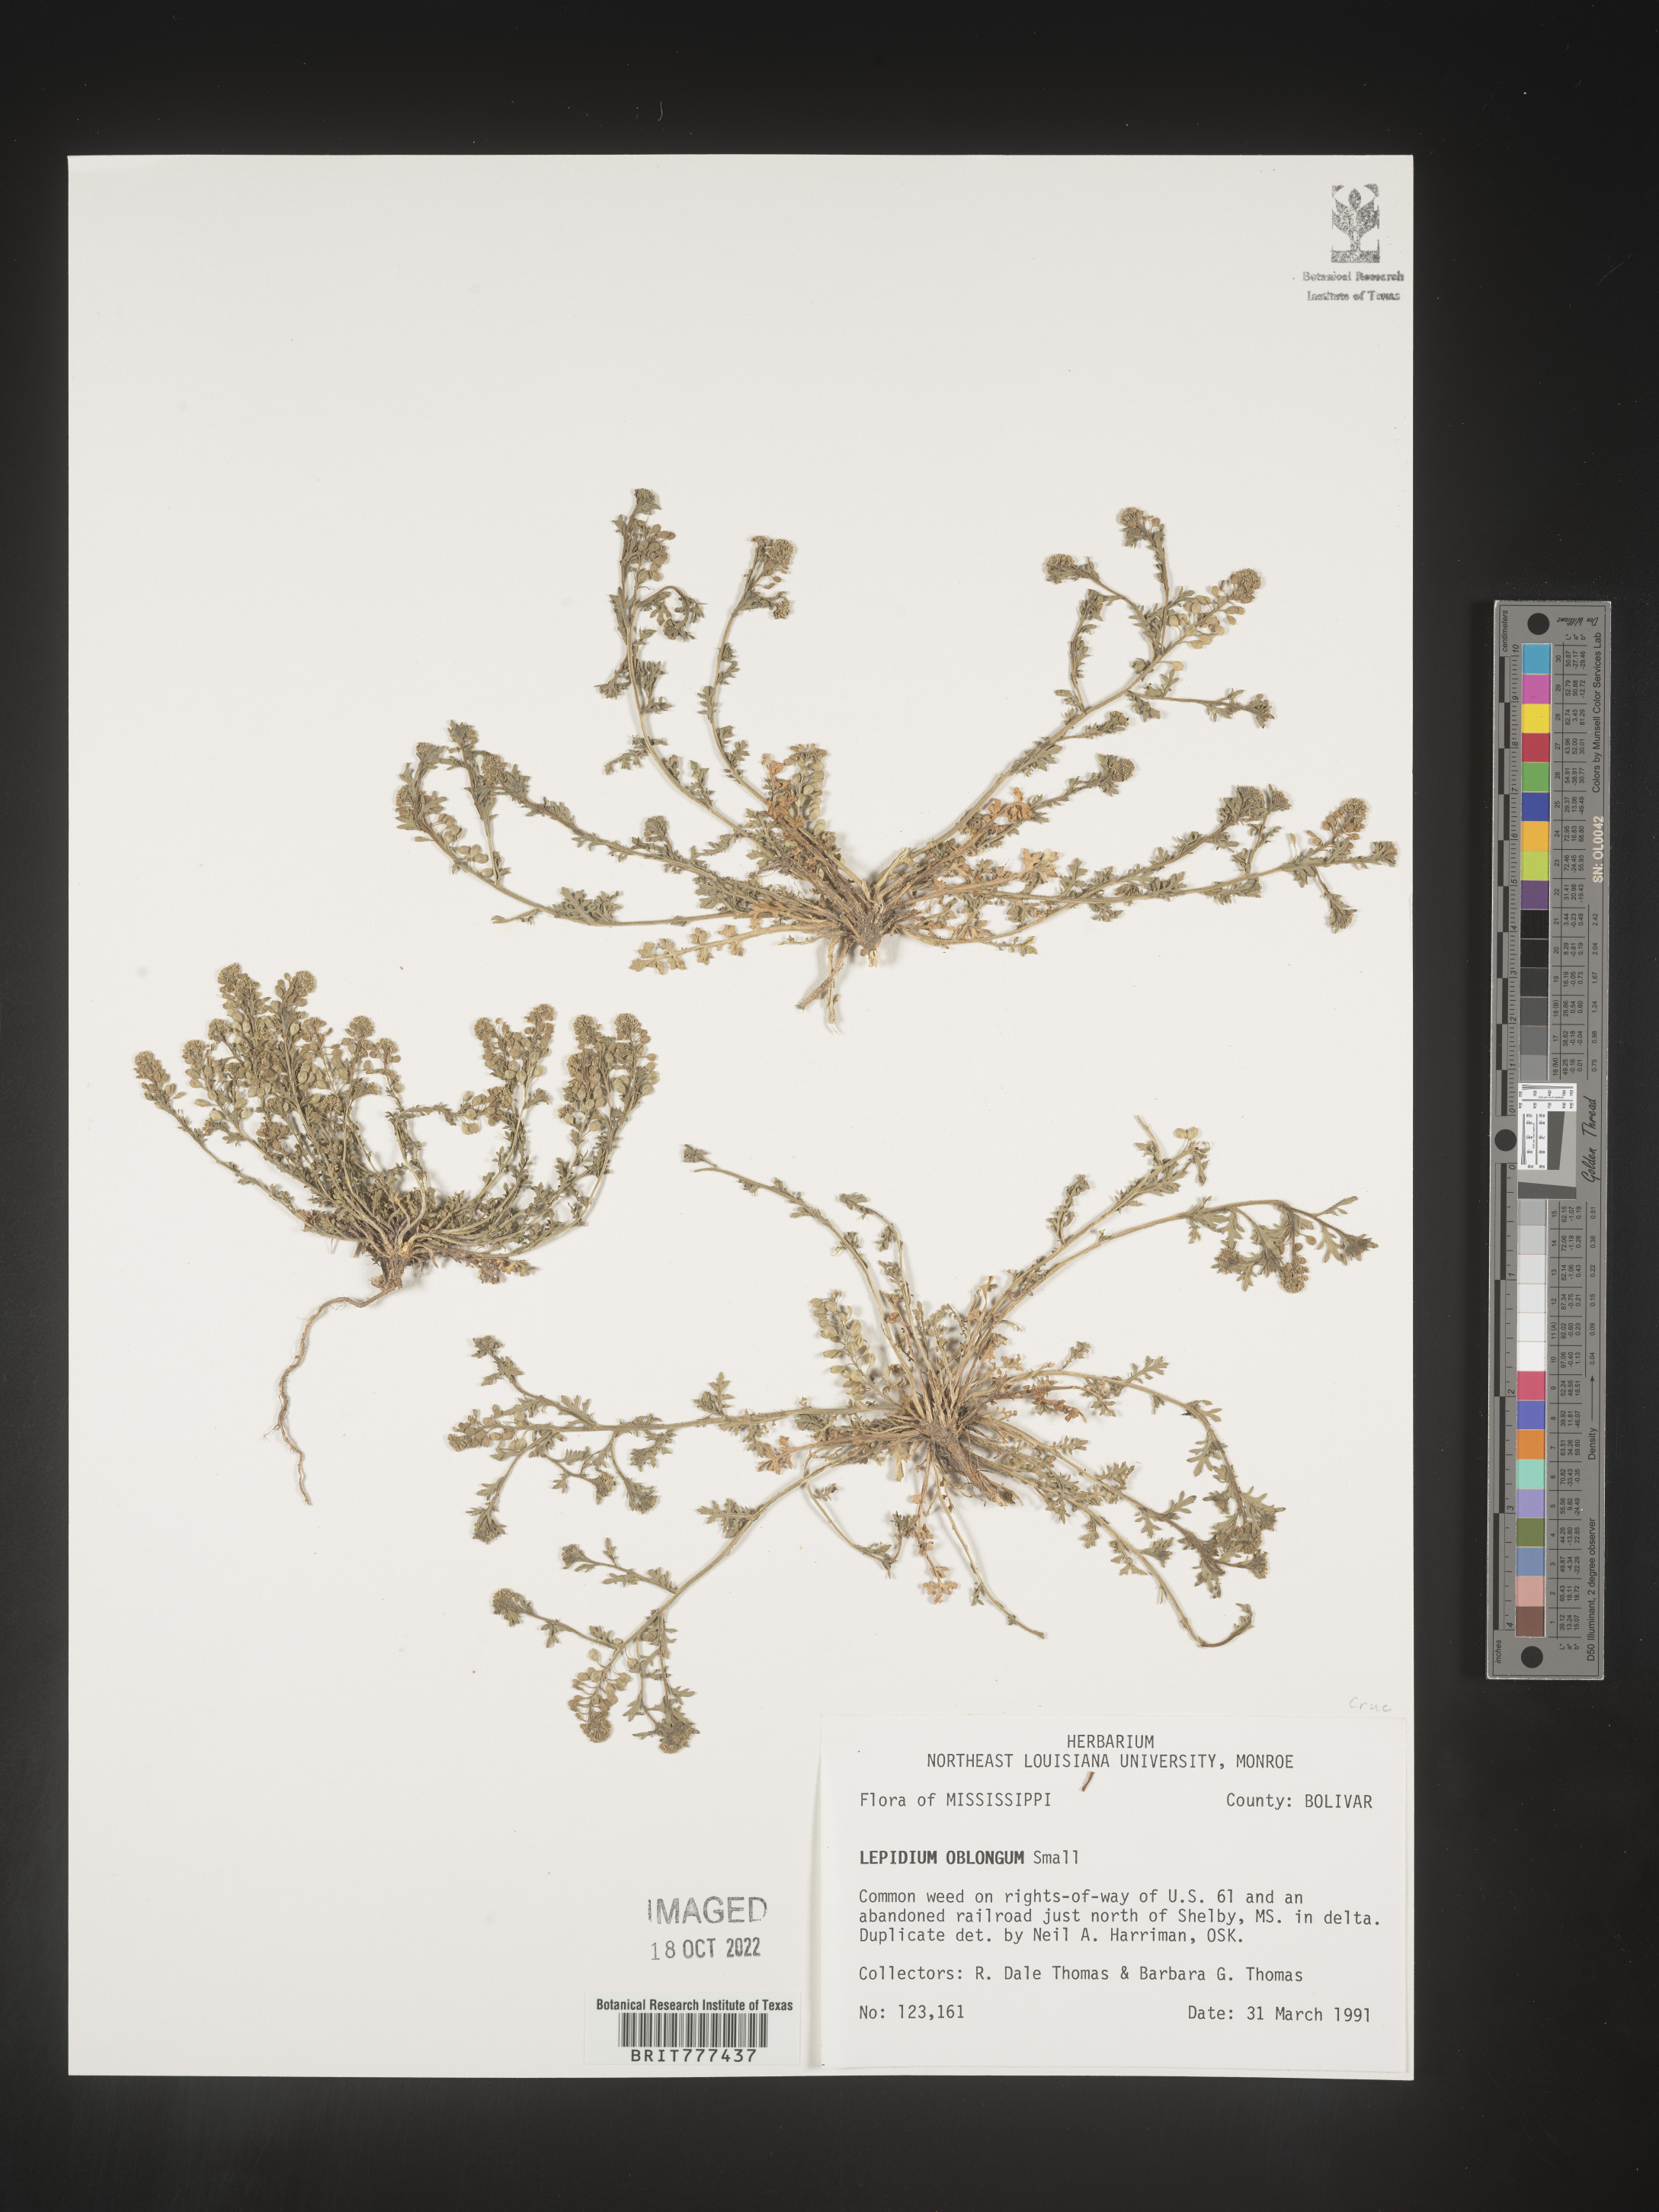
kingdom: Plantae
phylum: Tracheophyta
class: Magnoliopsida
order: Brassicales
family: Brassicaceae
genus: Lepidium
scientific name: Lepidium oblongum
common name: Veiny pepperweed
